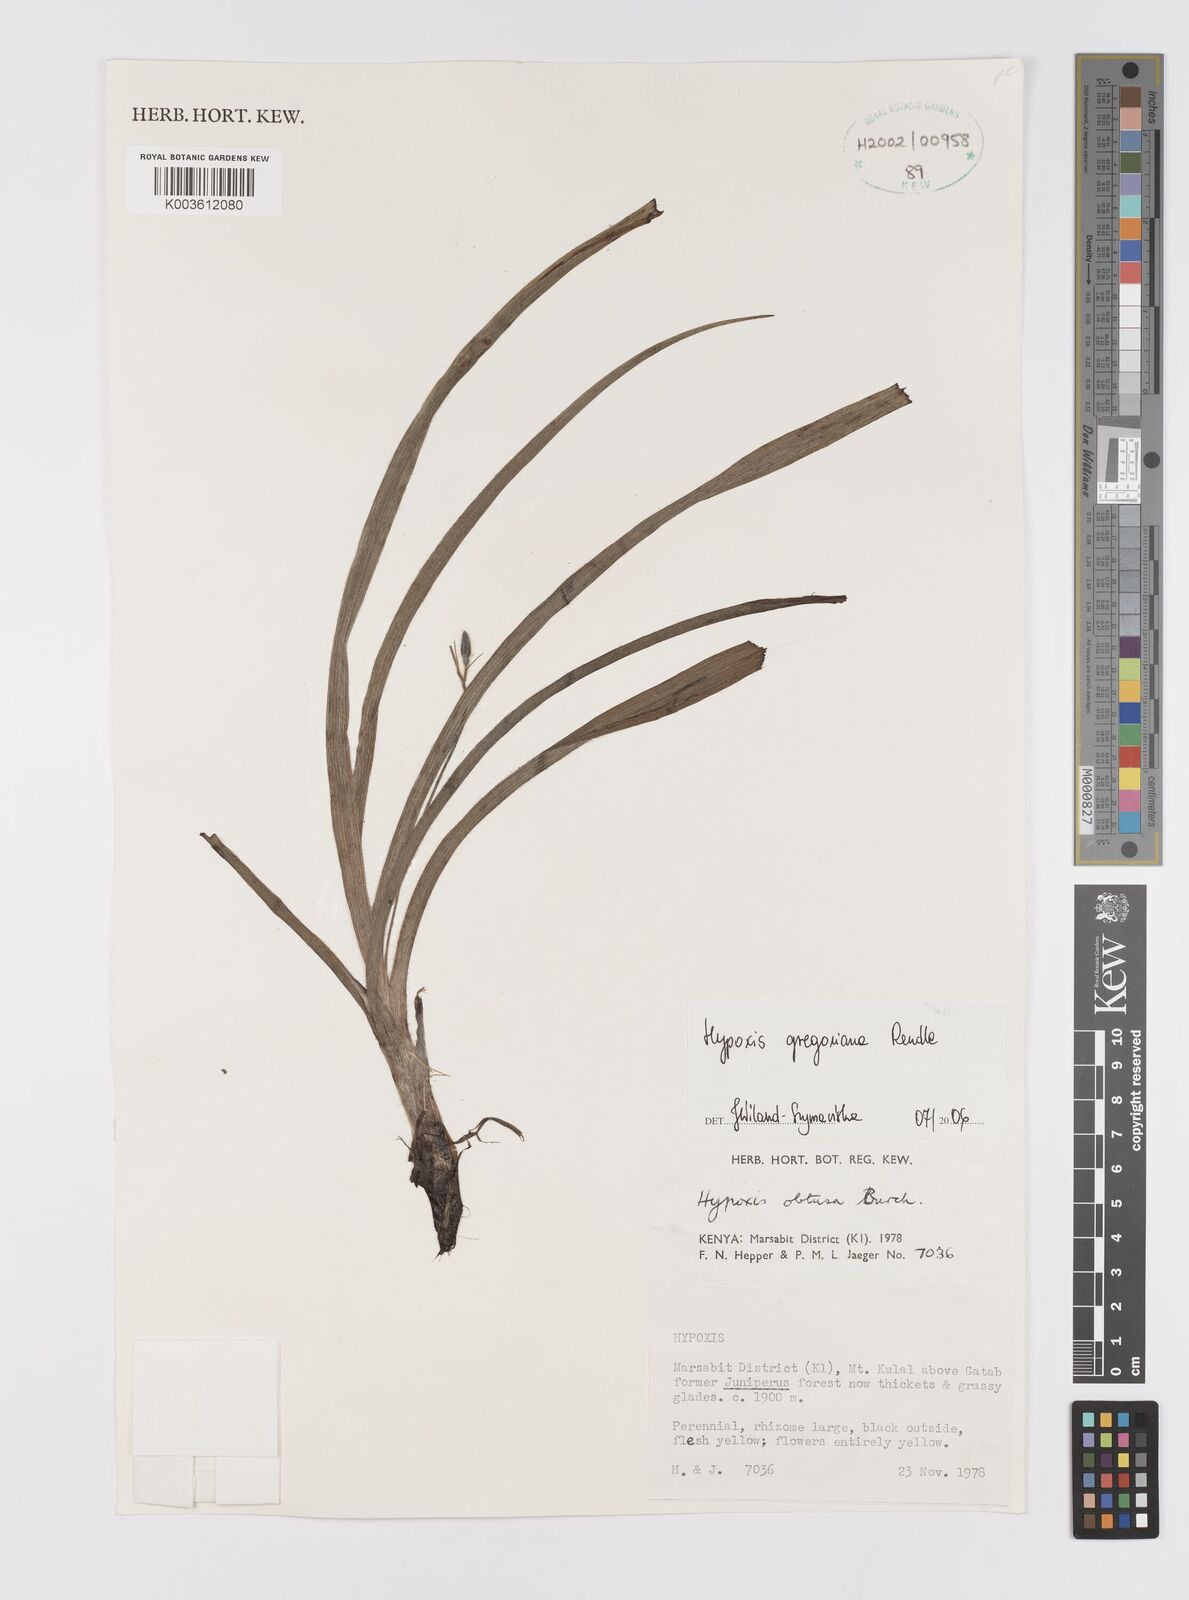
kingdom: Plantae
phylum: Tracheophyta
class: Liliopsida
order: Asparagales
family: Hypoxidaceae
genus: Hypoxis
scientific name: Hypoxis gregoriana
